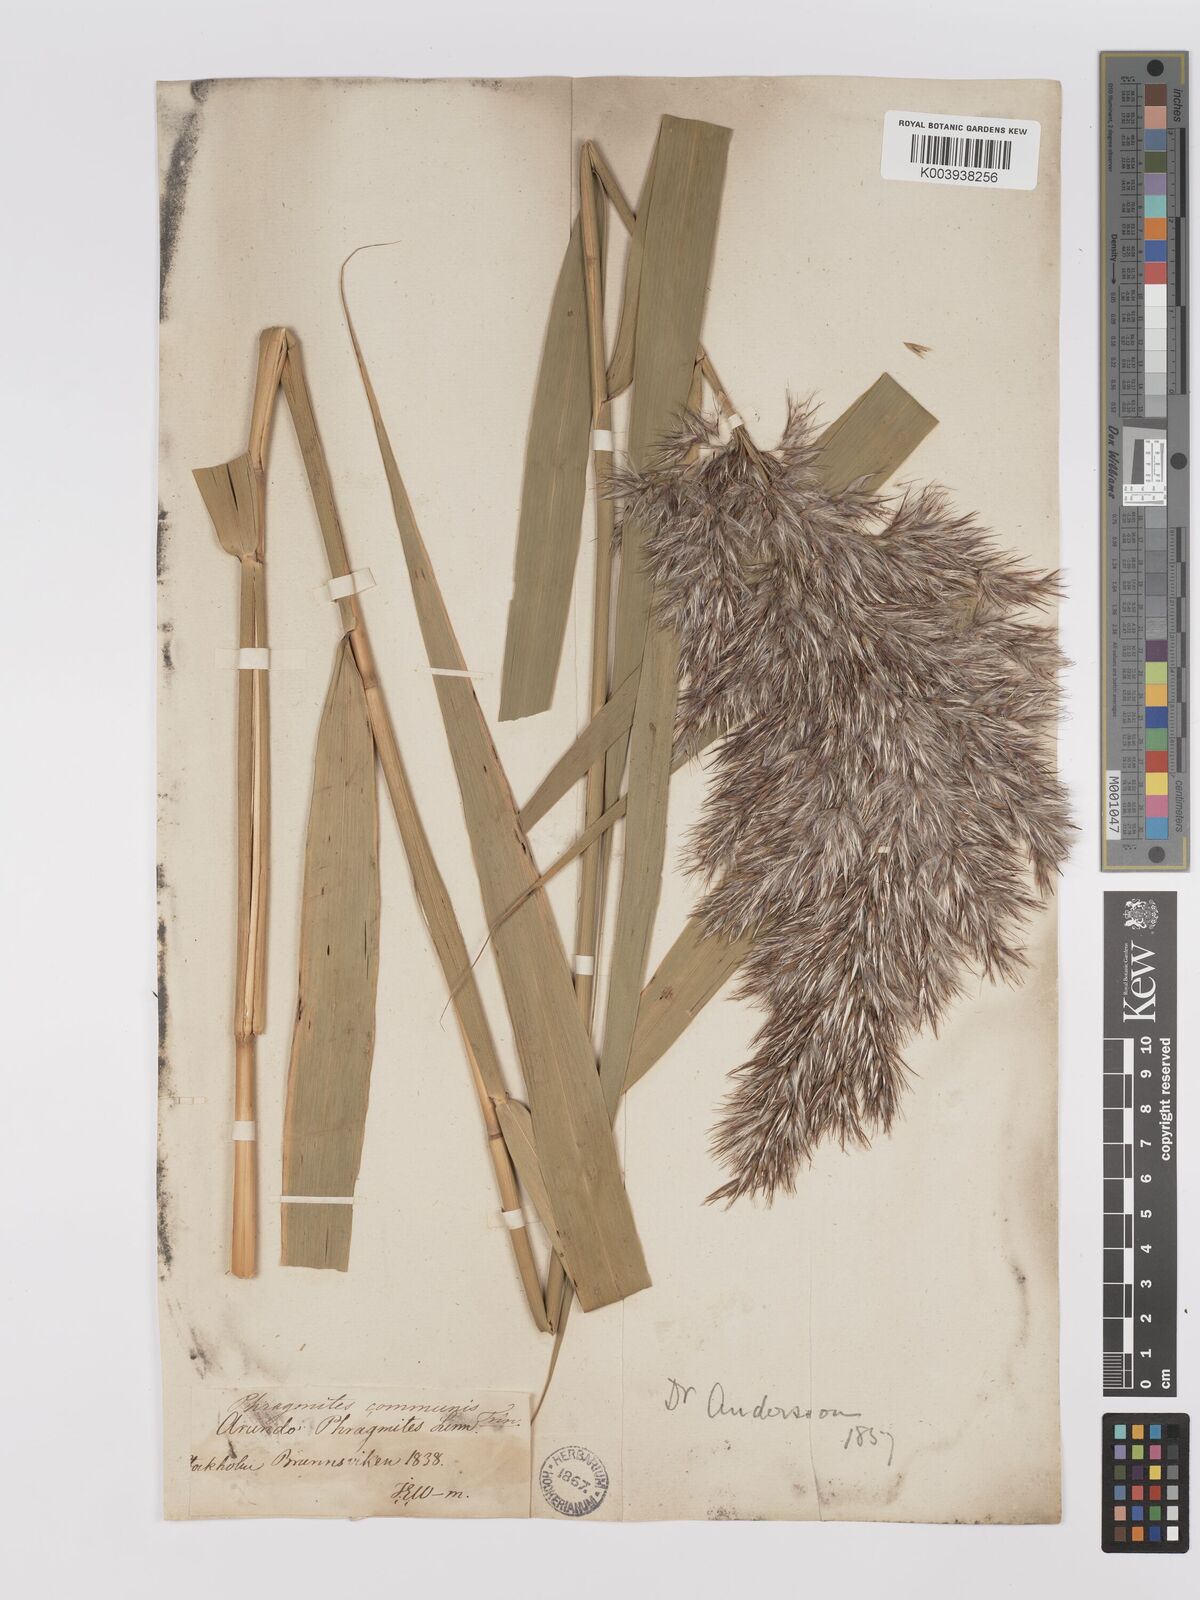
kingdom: Plantae
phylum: Tracheophyta
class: Liliopsida
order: Poales
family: Poaceae
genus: Phragmites
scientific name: Phragmites australis
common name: Common reed
